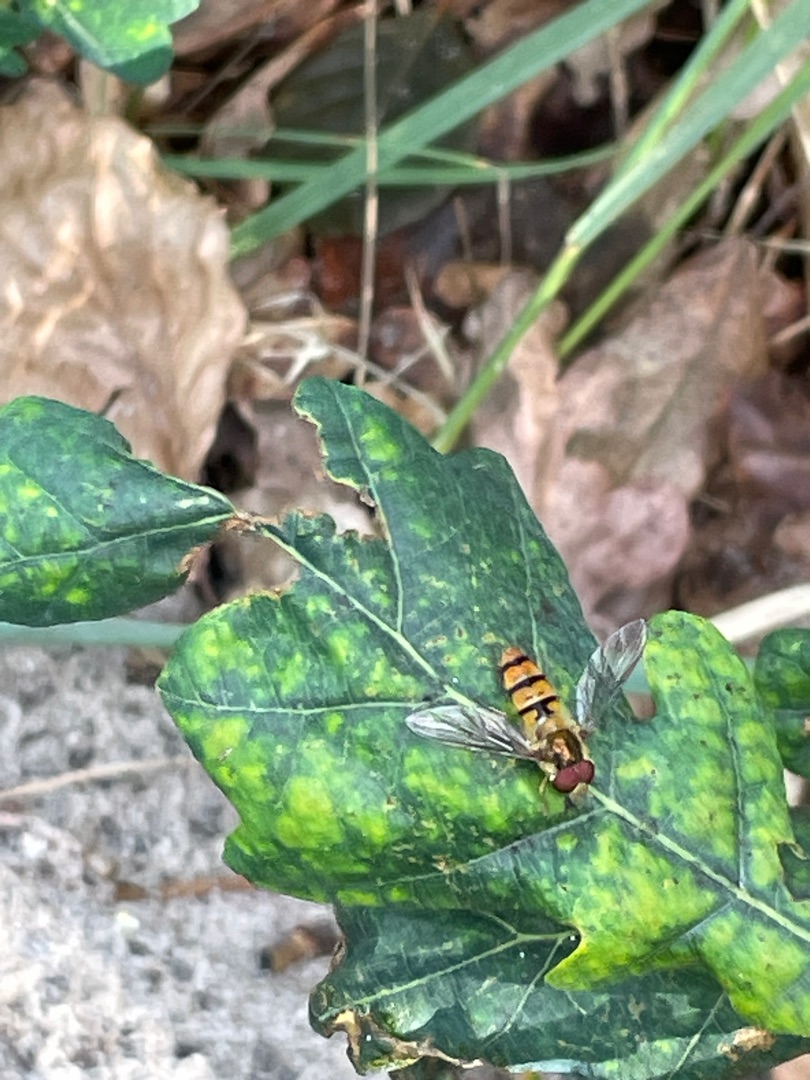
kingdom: Animalia
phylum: Arthropoda
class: Insecta
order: Diptera
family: Syrphidae
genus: Episyrphus
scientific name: Episyrphus balteatus
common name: Dobbeltbåndet svirreflue
